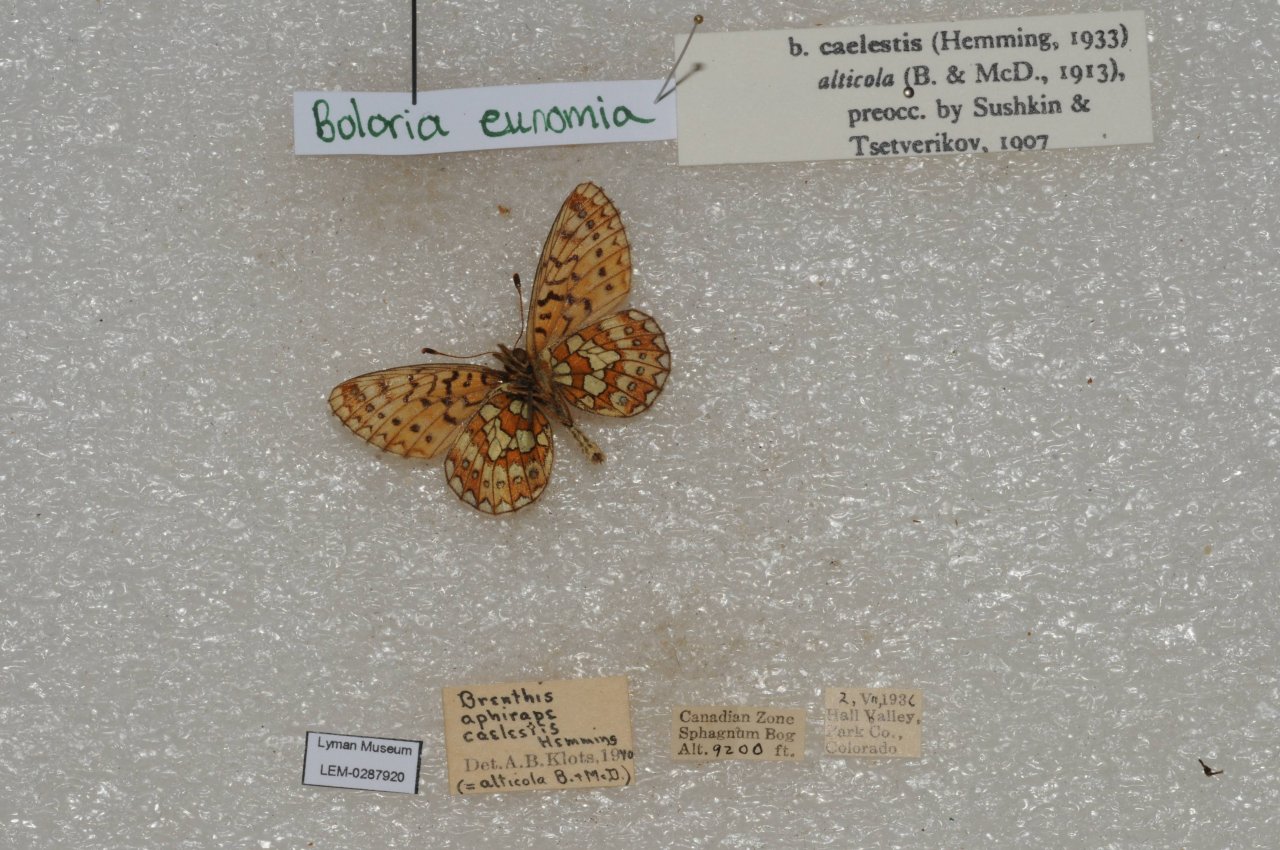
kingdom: Animalia
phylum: Arthropoda
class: Insecta
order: Lepidoptera
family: Nymphalidae
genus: Boloria
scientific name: Boloria eunomia
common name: Bog Fritillary
